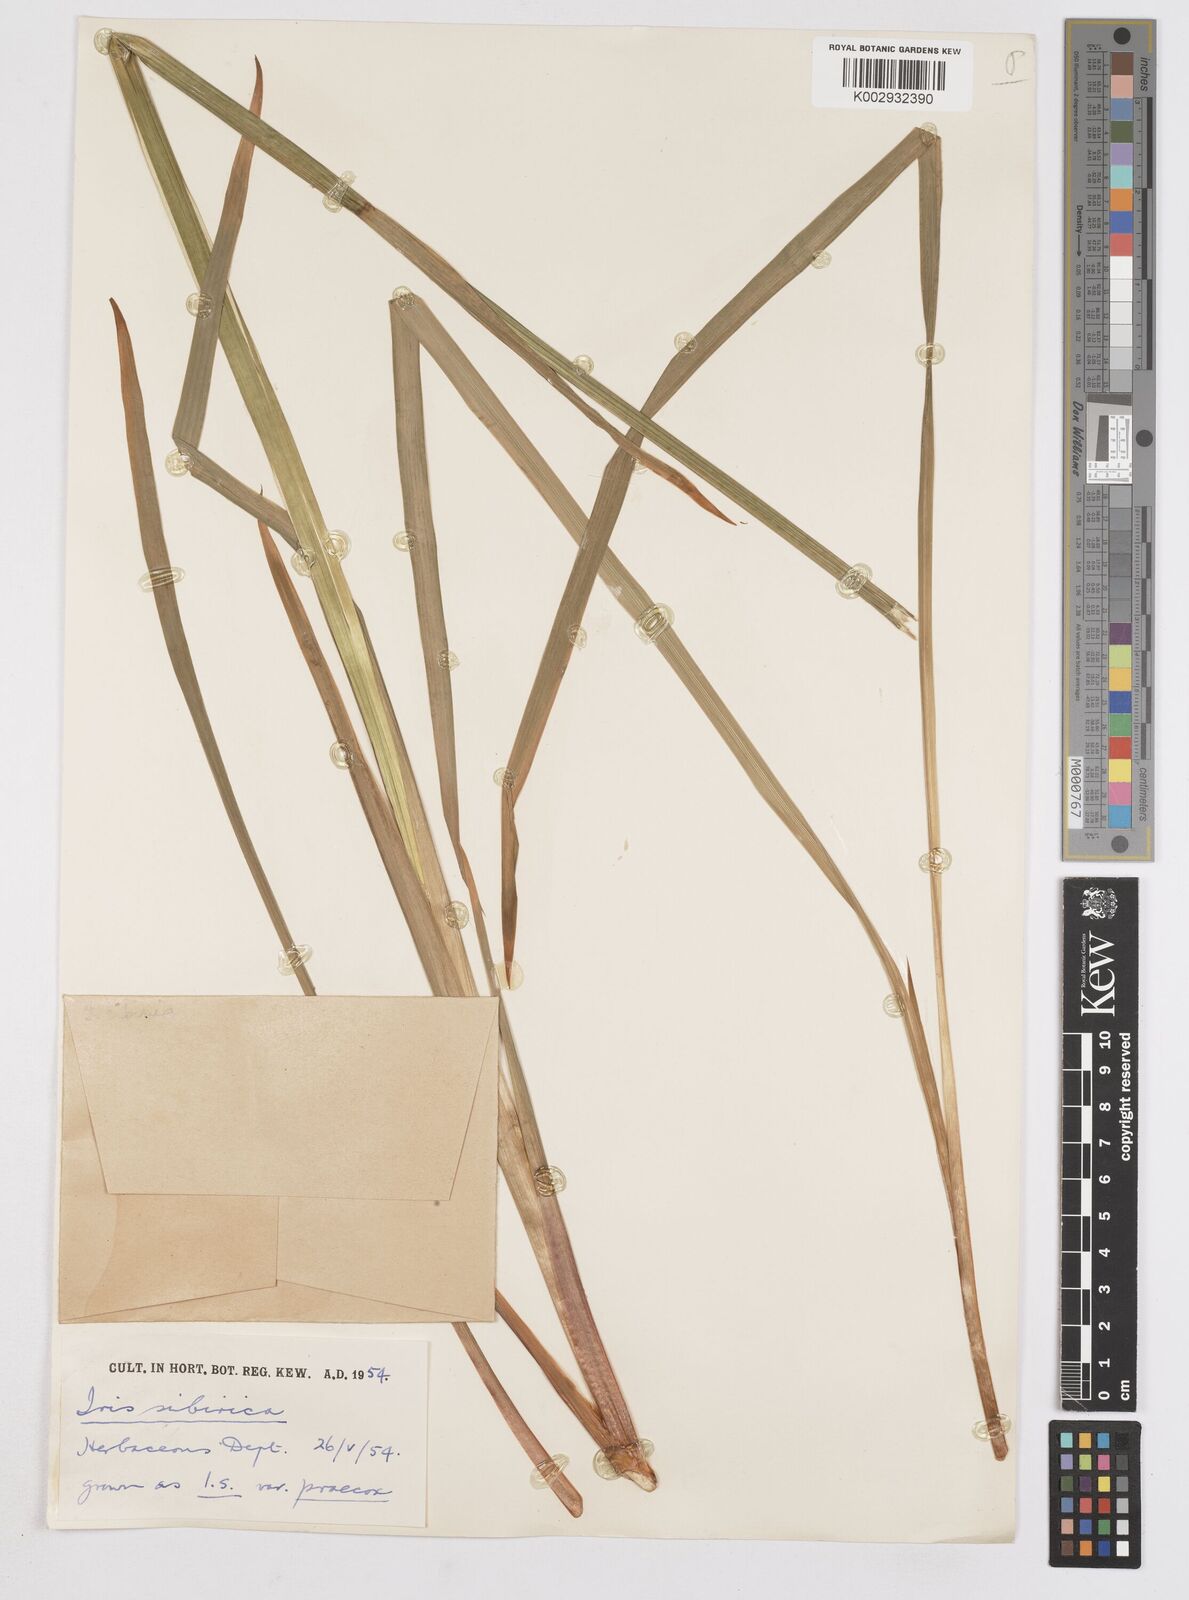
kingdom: Plantae
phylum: Tracheophyta
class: Liliopsida
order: Asparagales
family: Iridaceae
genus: Iris
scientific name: Iris sibirica
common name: Siberian iris
